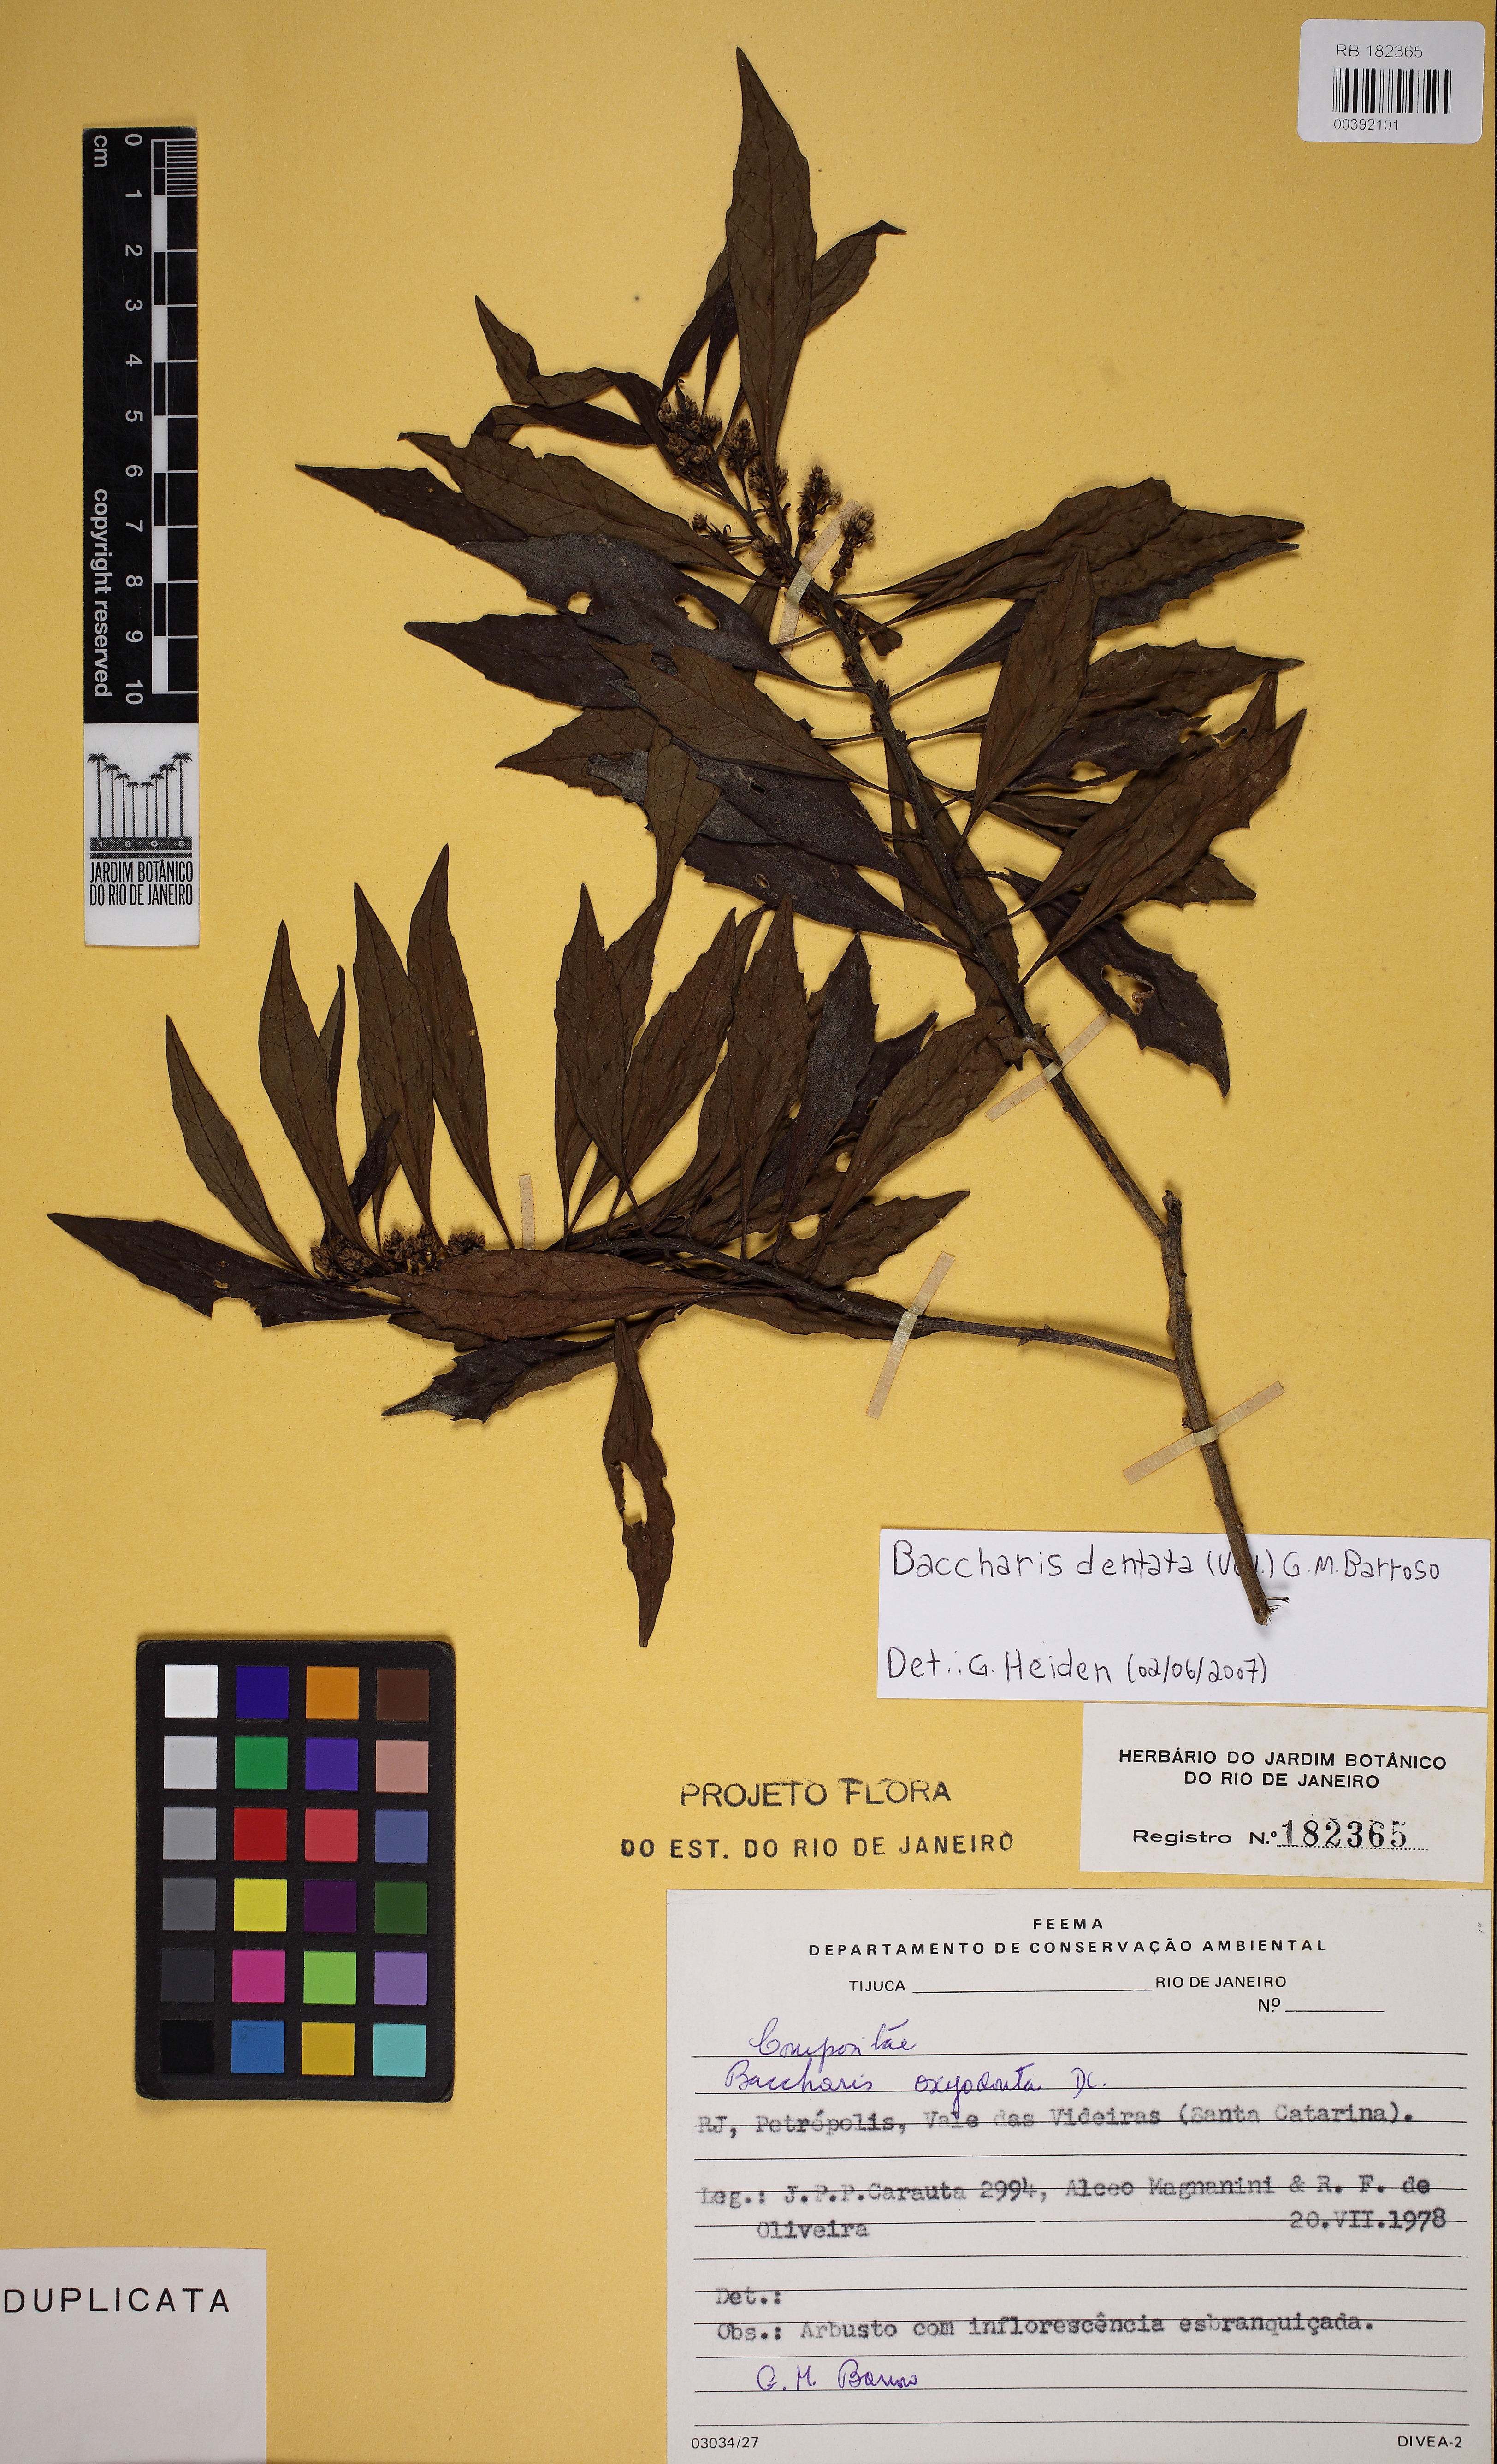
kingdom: Plantae
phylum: Tracheophyta
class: Magnoliopsida
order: Asterales
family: Asteraceae
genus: Baccharis
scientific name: Baccharis dentata
